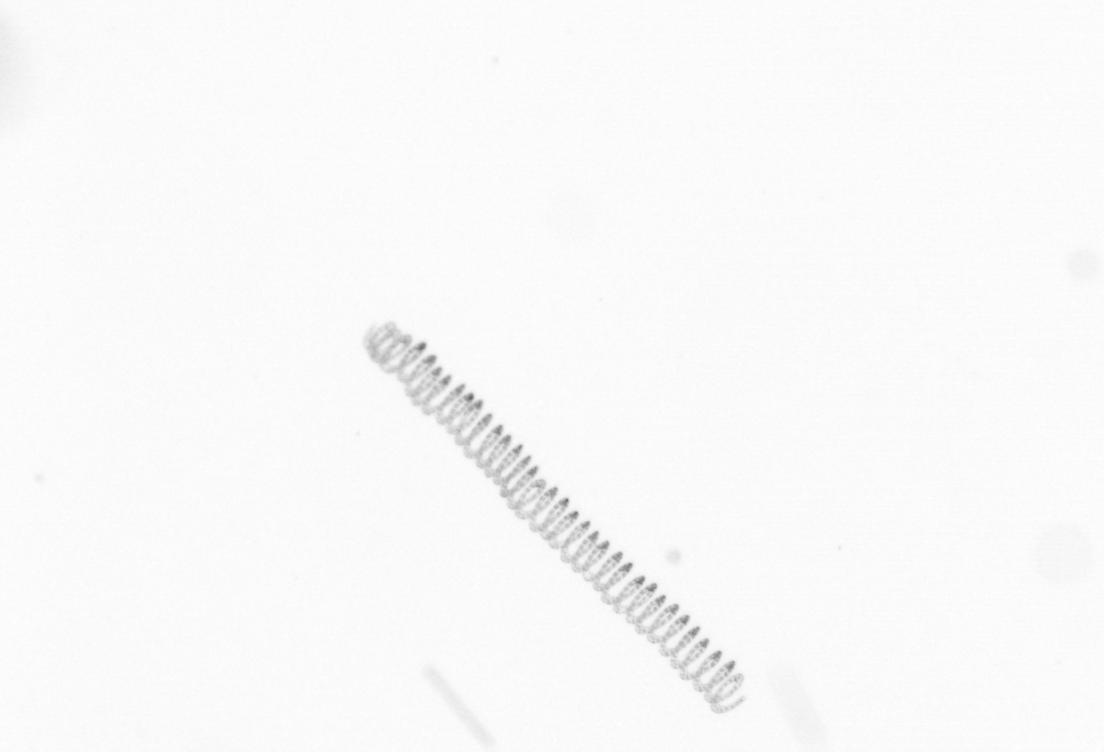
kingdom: Chromista
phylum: Ochrophyta
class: Bacillariophyceae
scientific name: Bacillariophyceae
